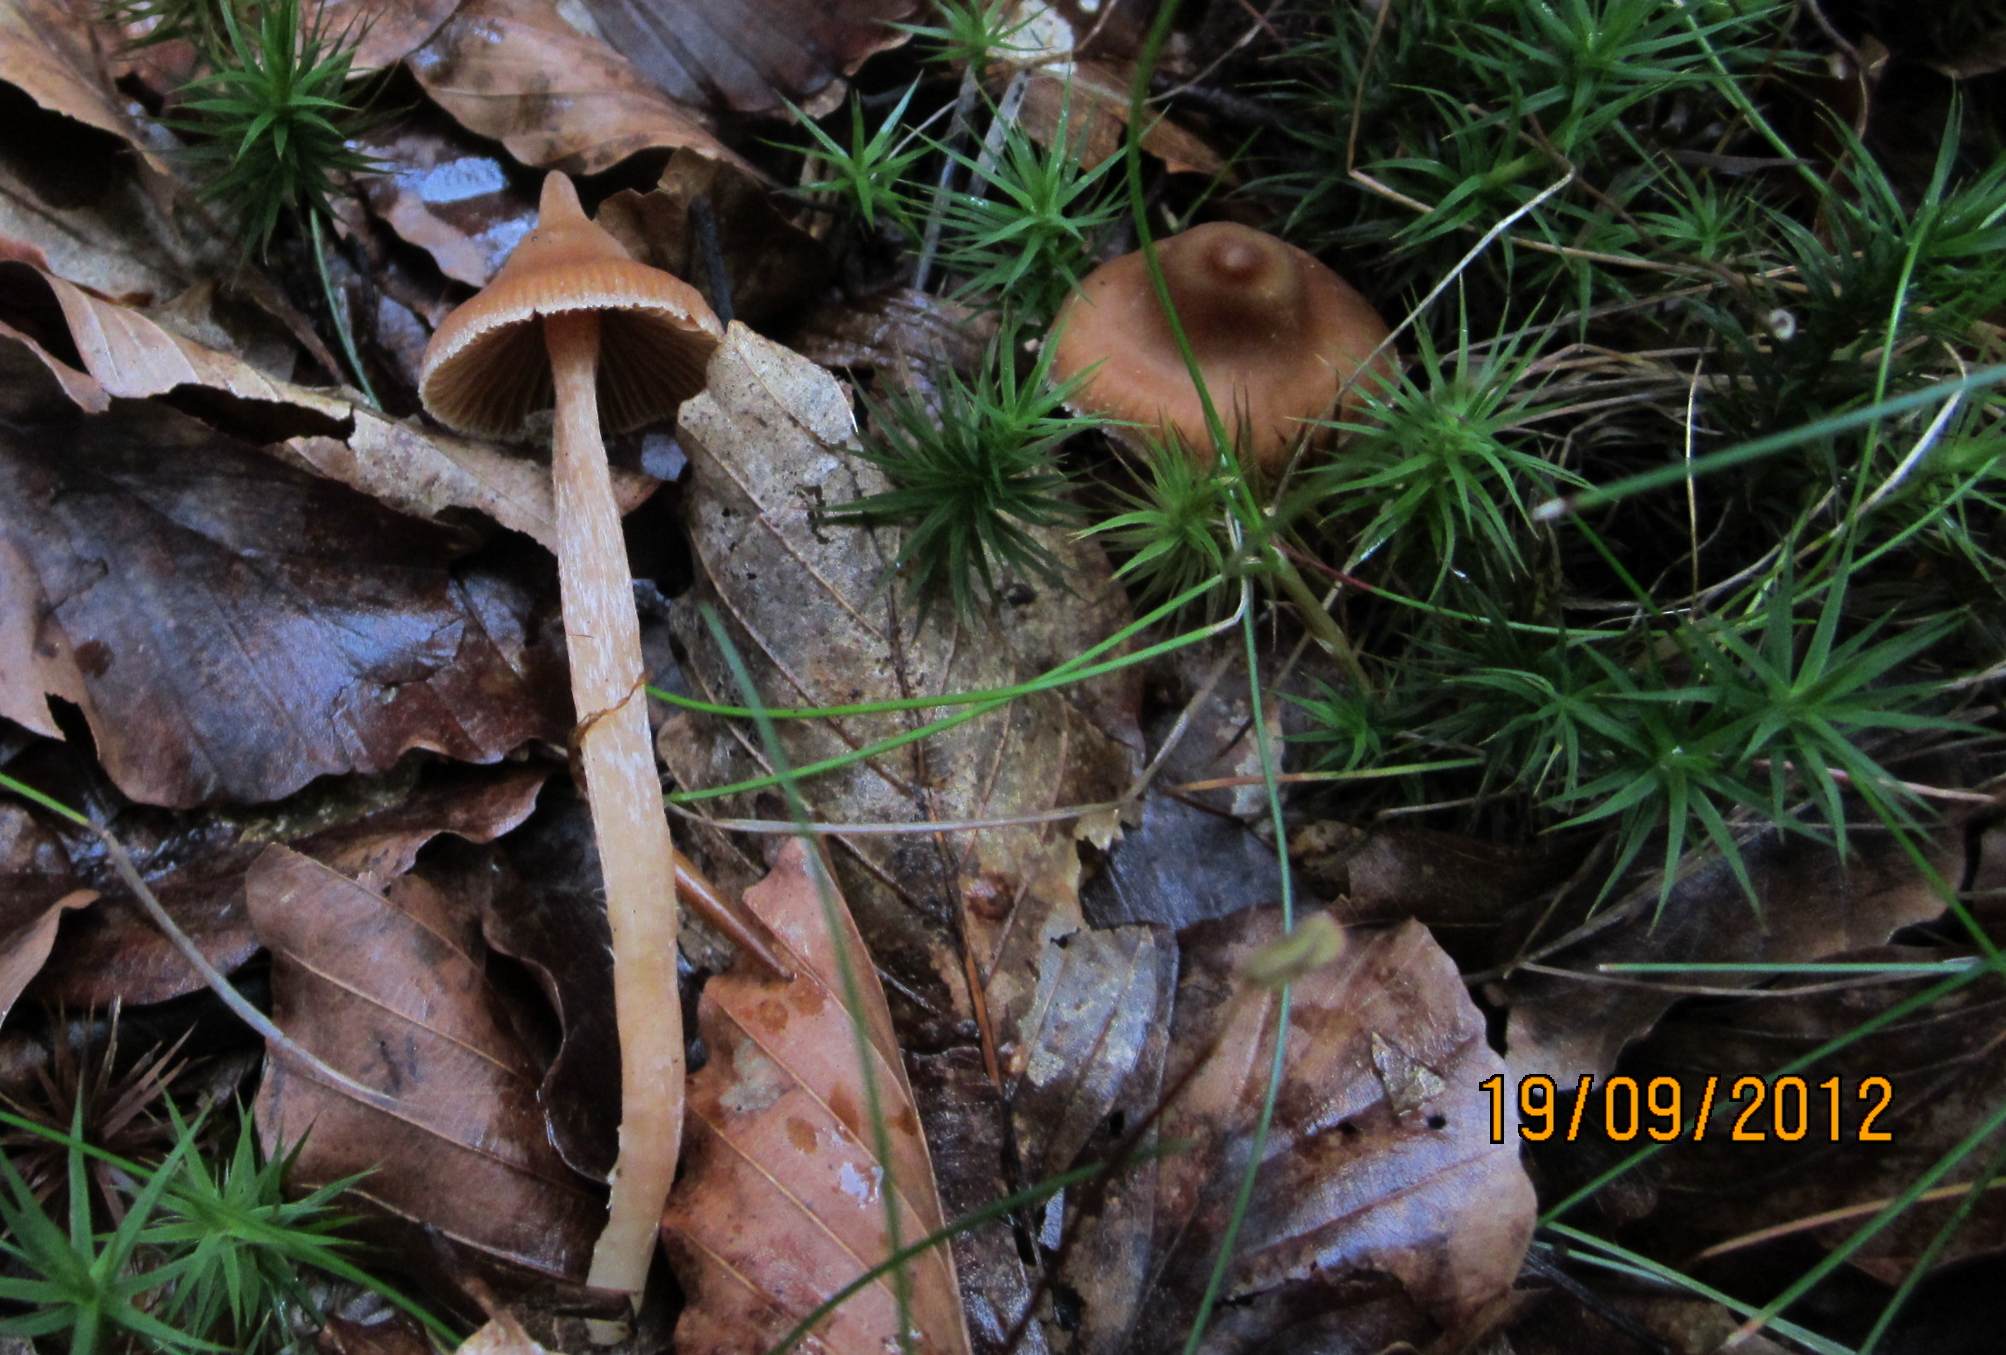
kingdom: Fungi
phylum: Basidiomycota
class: Agaricomycetes
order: Agaricales
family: Cortinariaceae
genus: Cortinarius
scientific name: Cortinarius acutus
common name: spids slørhat
